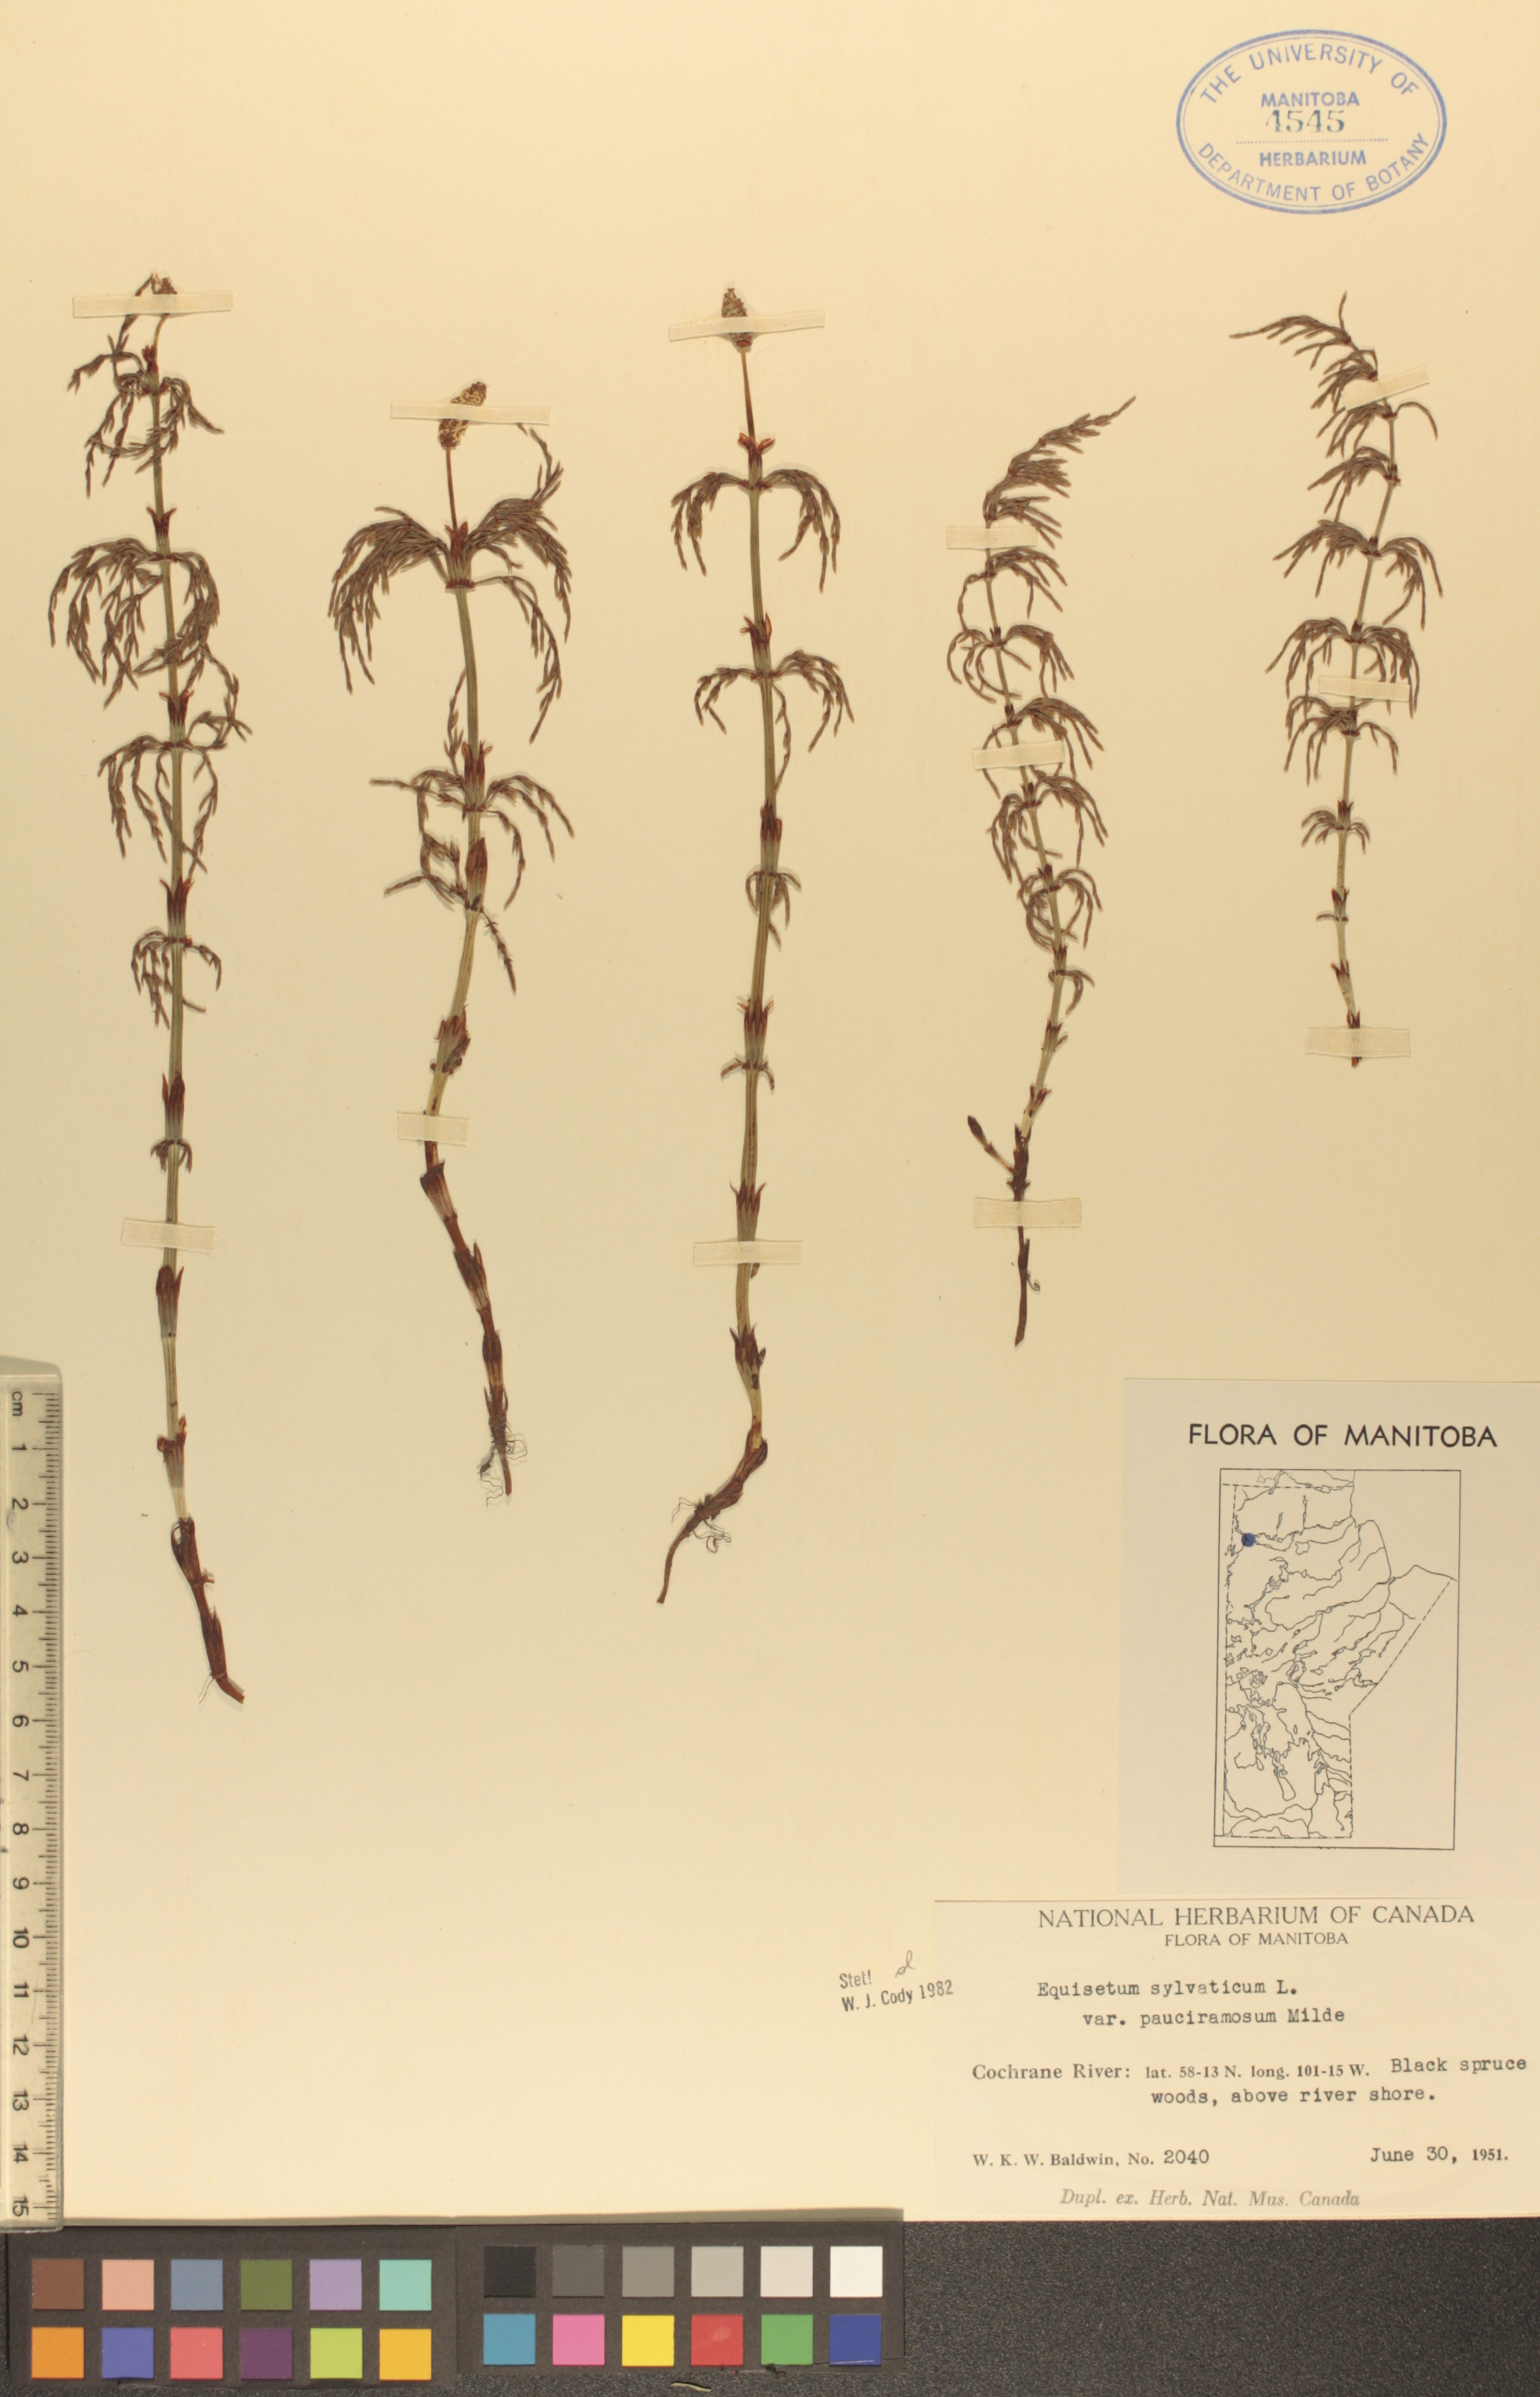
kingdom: Plantae
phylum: Tracheophyta
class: Polypodiopsida
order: Equisetales
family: Equisetaceae
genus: Equisetum
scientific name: Equisetum sylvaticum
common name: Wood horsetail
